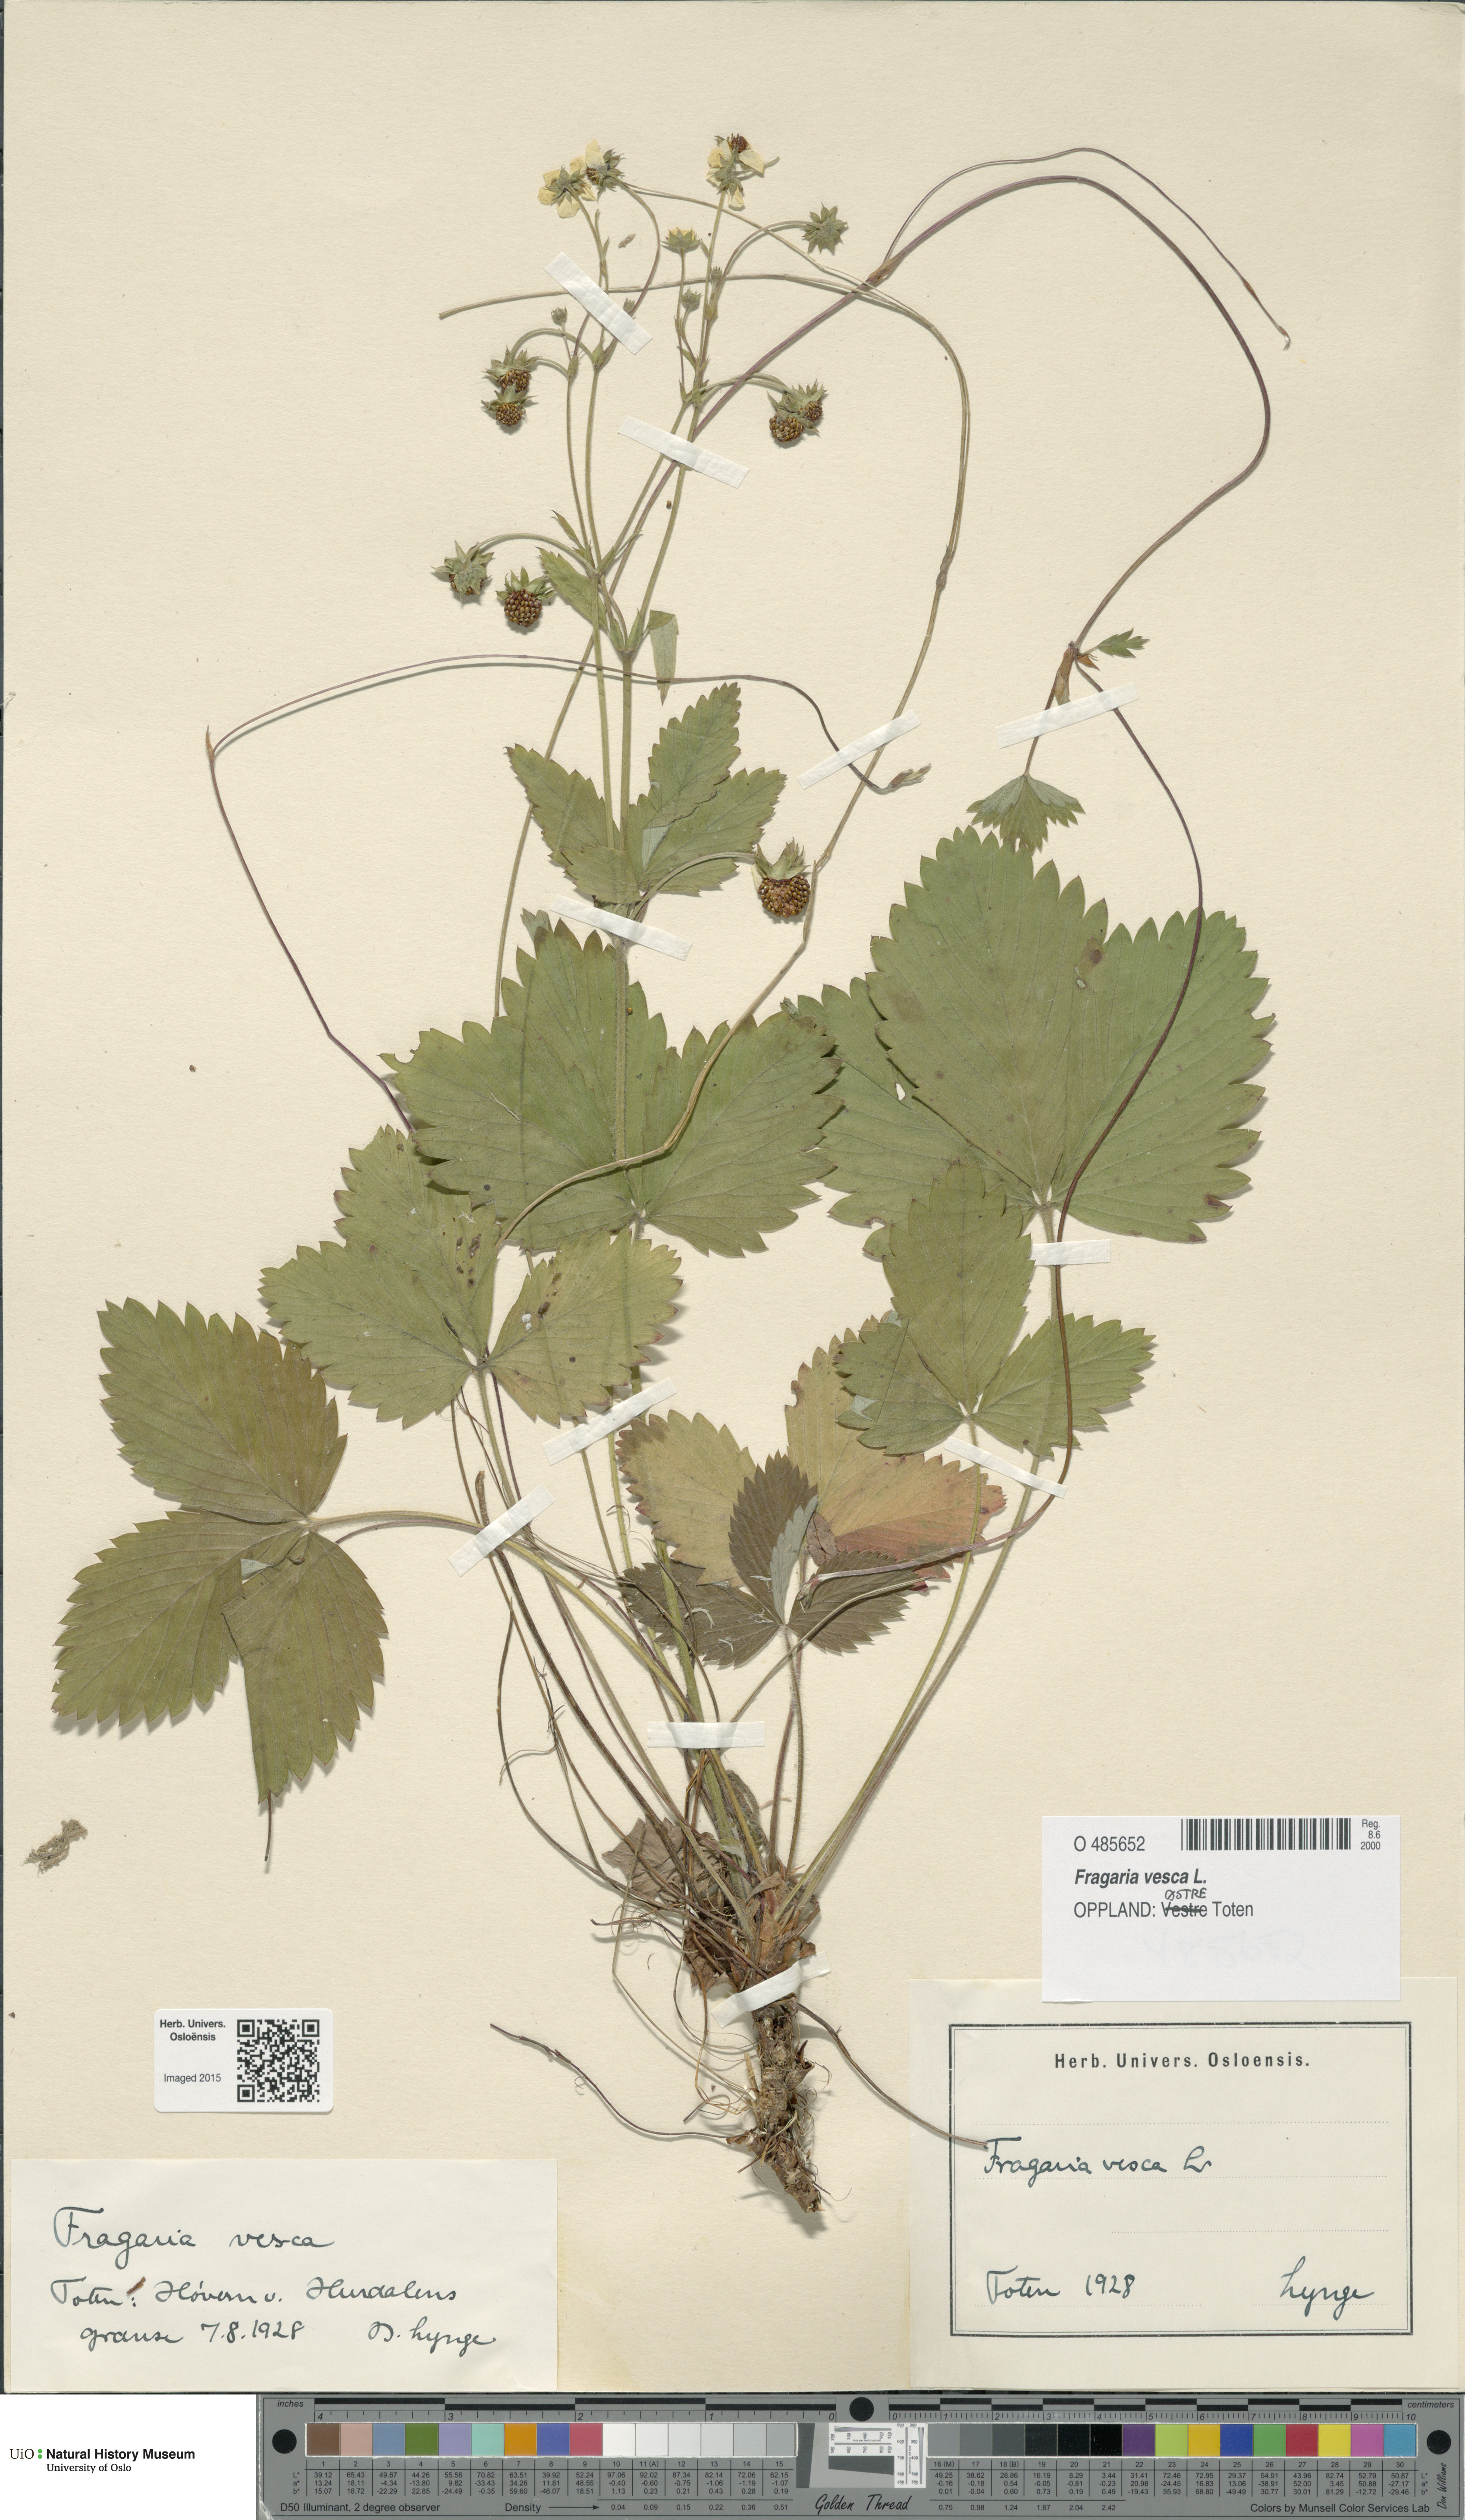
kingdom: Plantae
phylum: Tracheophyta
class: Magnoliopsida
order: Rosales
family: Rosaceae
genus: Fragaria
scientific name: Fragaria vesca
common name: Wild strawberry
